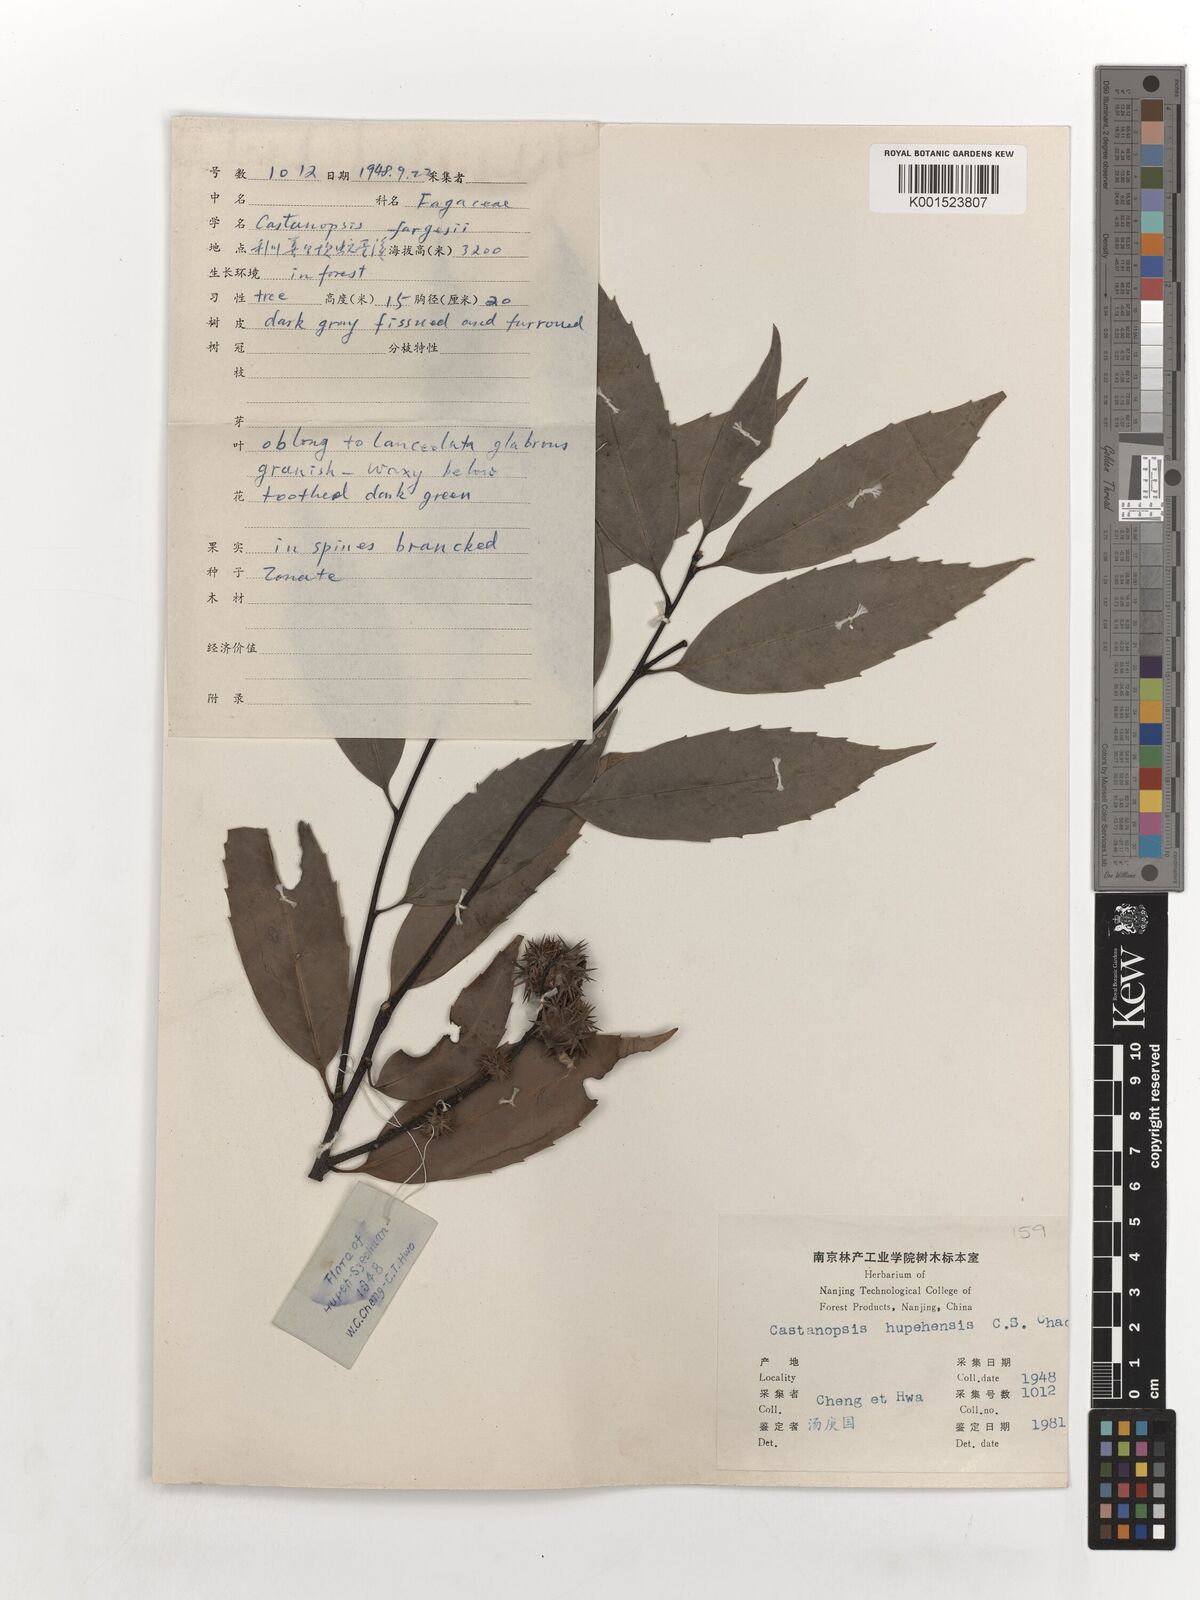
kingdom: Plantae
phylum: Tracheophyta
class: Magnoliopsida
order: Fagales
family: Fagaceae
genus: Castanopsis
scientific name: Castanopsis hupehensis
